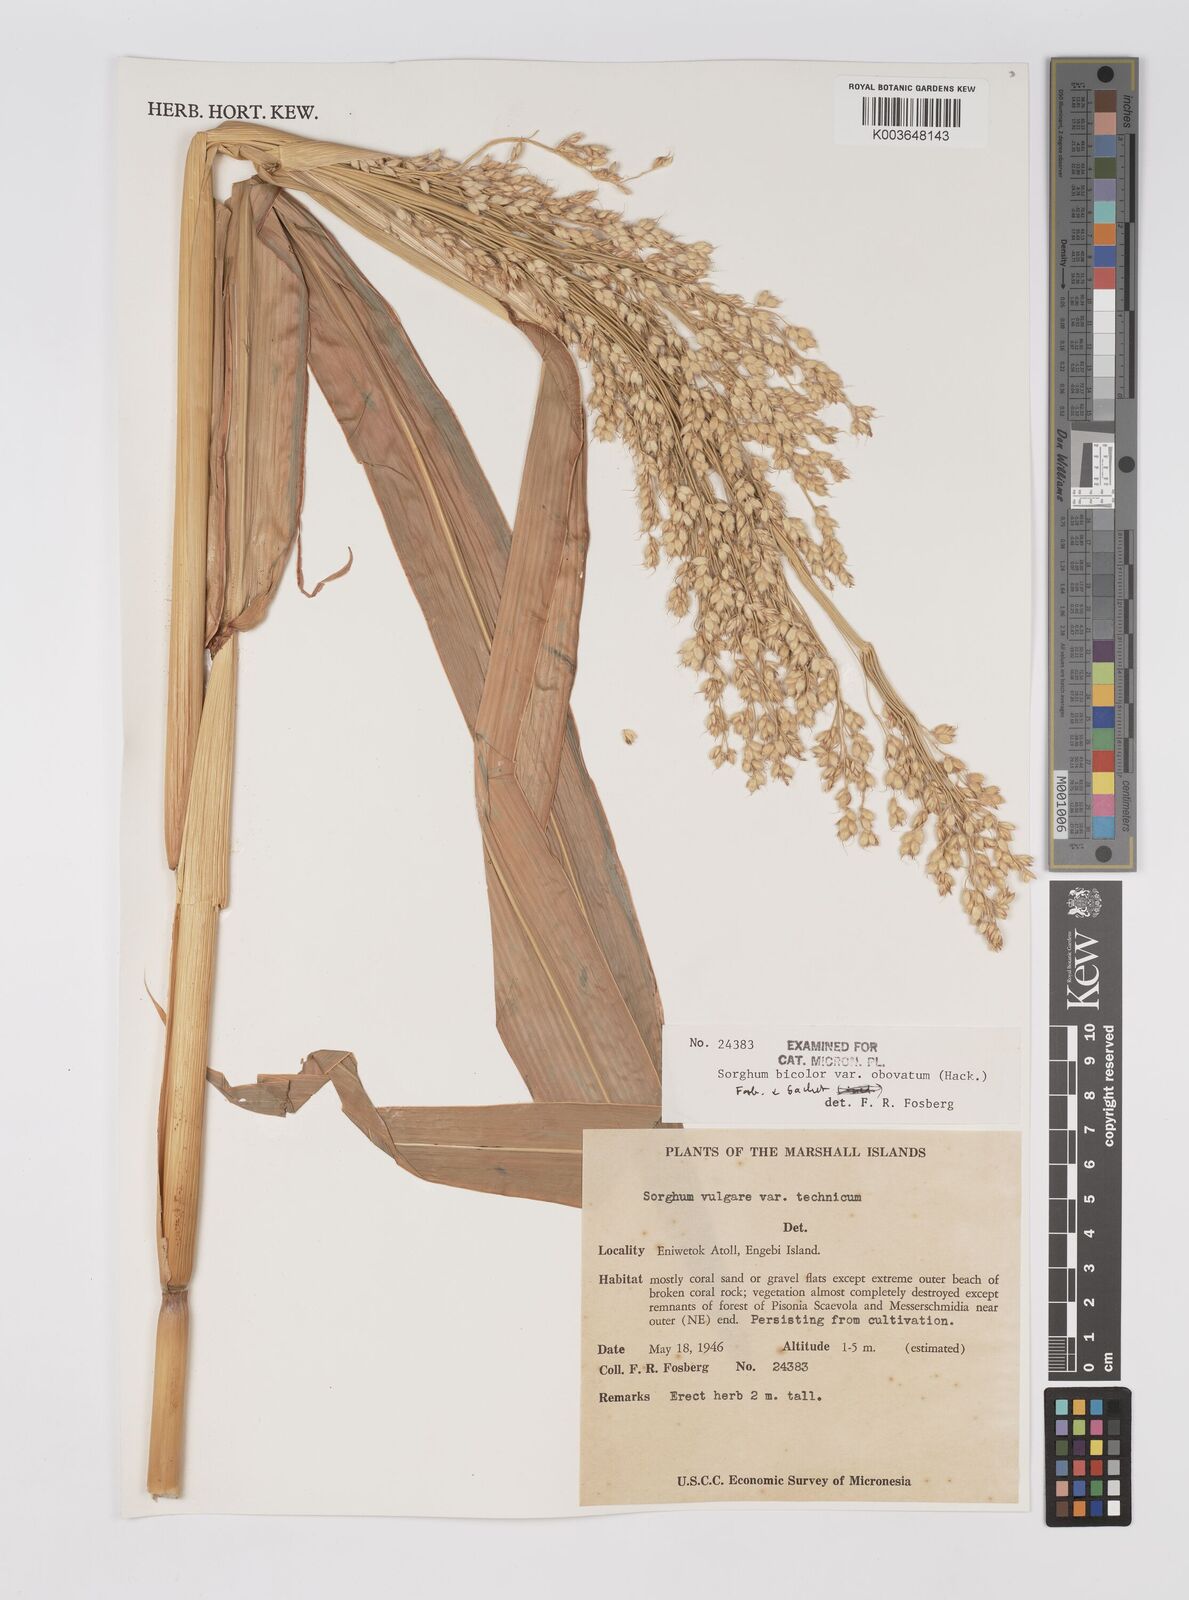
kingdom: Plantae
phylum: Tracheophyta
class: Liliopsida
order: Poales
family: Poaceae
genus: Sorghum
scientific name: Sorghum bicolor
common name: Sorghum
